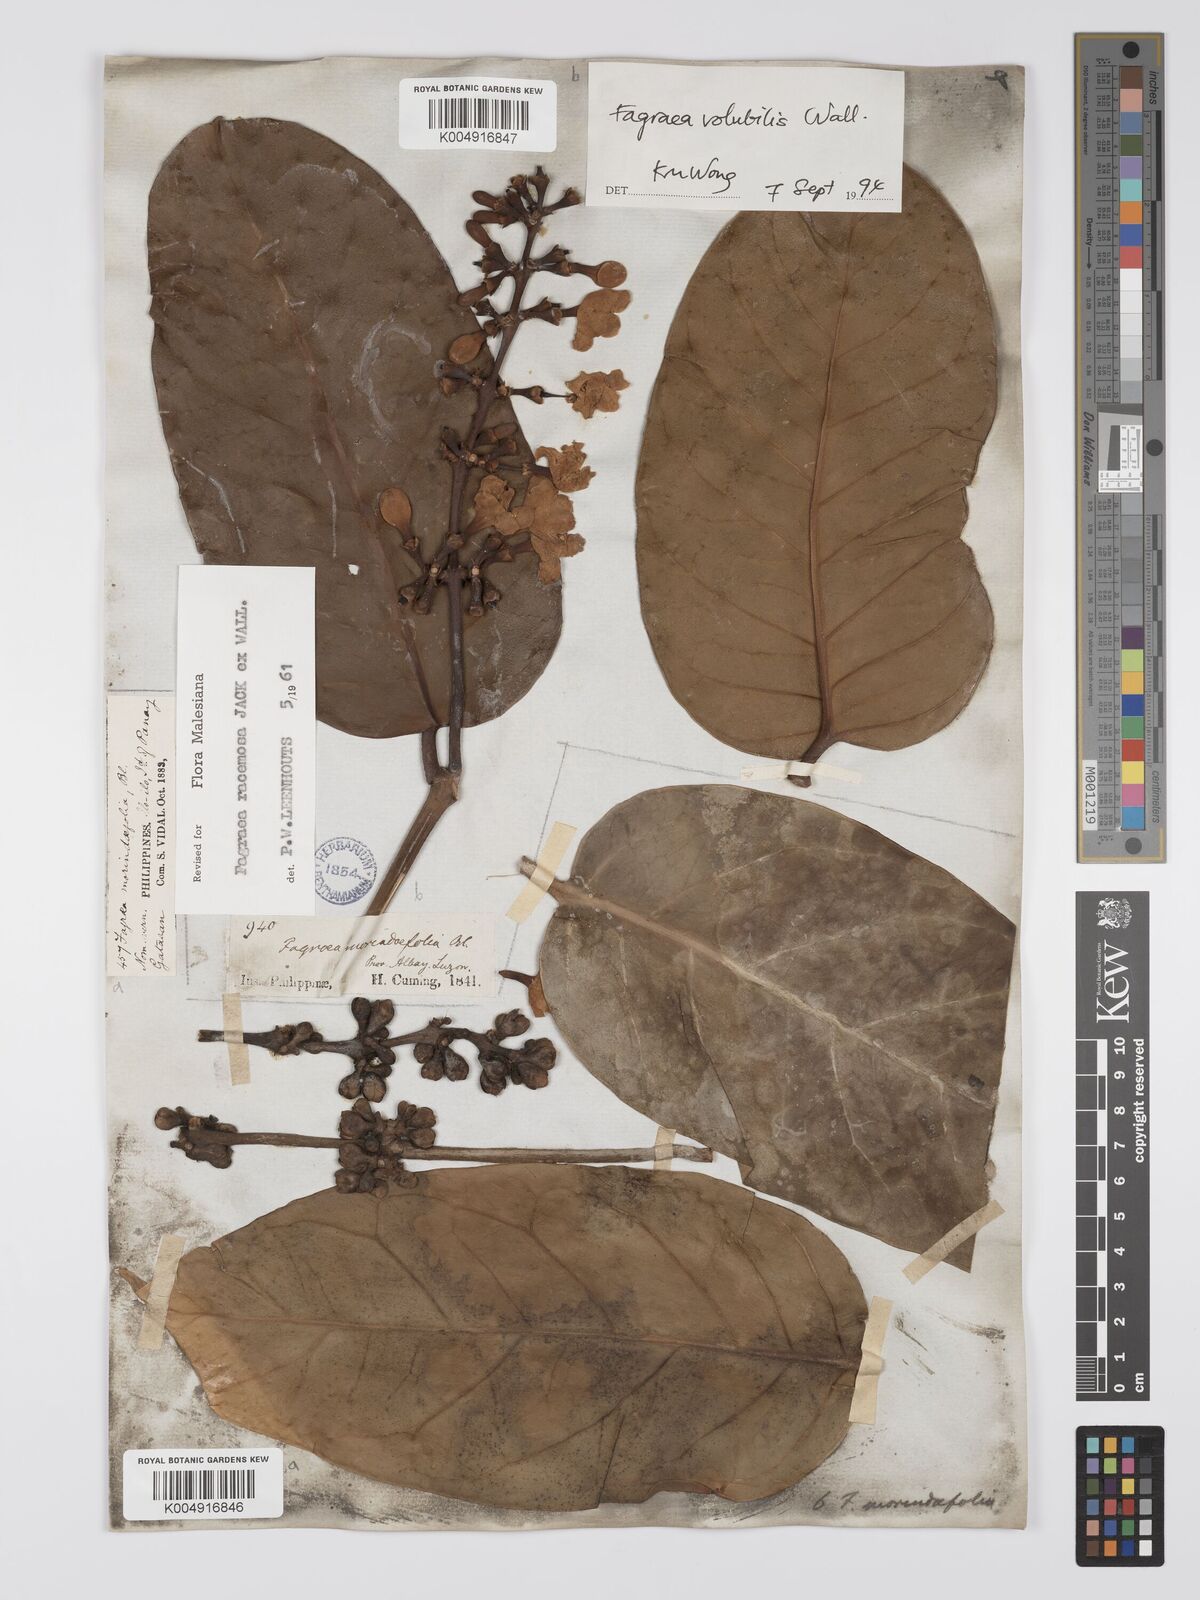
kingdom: Plantae
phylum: Tracheophyta
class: Magnoliopsida
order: Gentianales
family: Gentianaceae
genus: Utania
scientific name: Utania racemosa
